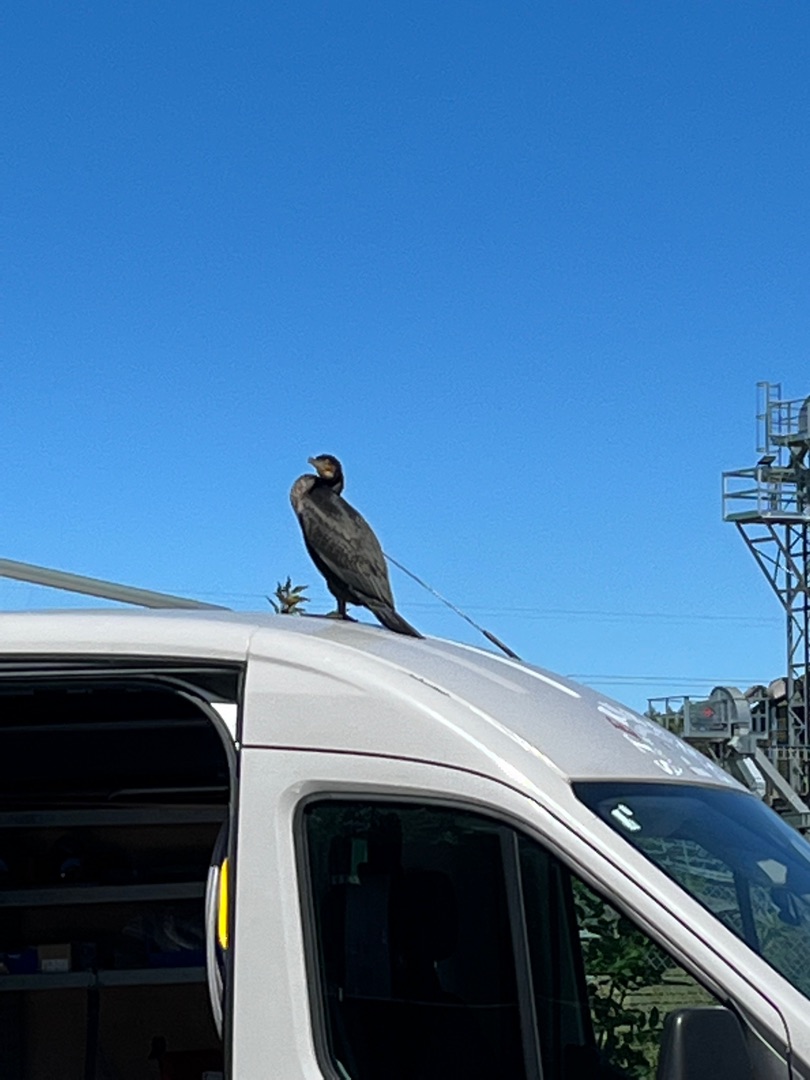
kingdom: Animalia
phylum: Chordata
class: Aves
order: Suliformes
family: Phalacrocoracidae
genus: Phalacrocorax
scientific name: Phalacrocorax carbo
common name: Skarv
